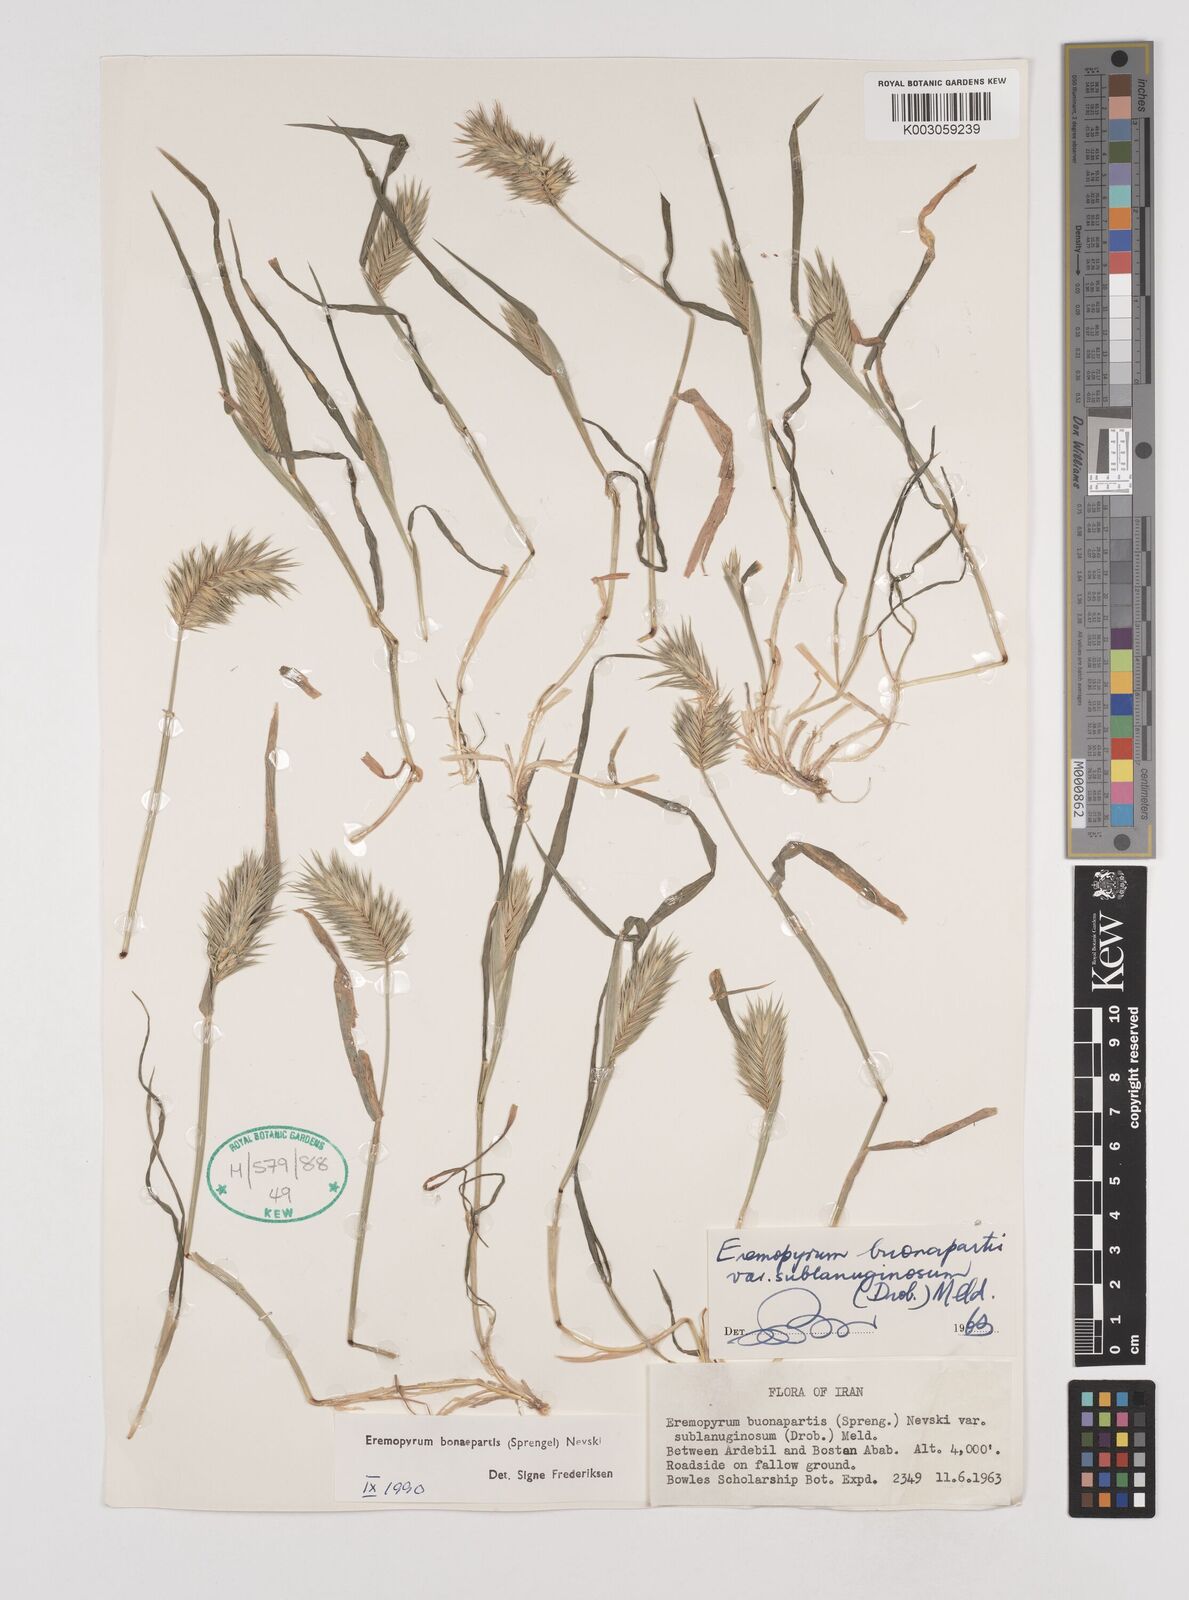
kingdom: Plantae
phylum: Tracheophyta
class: Liliopsida
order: Poales
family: Poaceae
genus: Eremopyrum
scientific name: Eremopyrum bonaepartis
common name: Tapertip false wheatgrass
